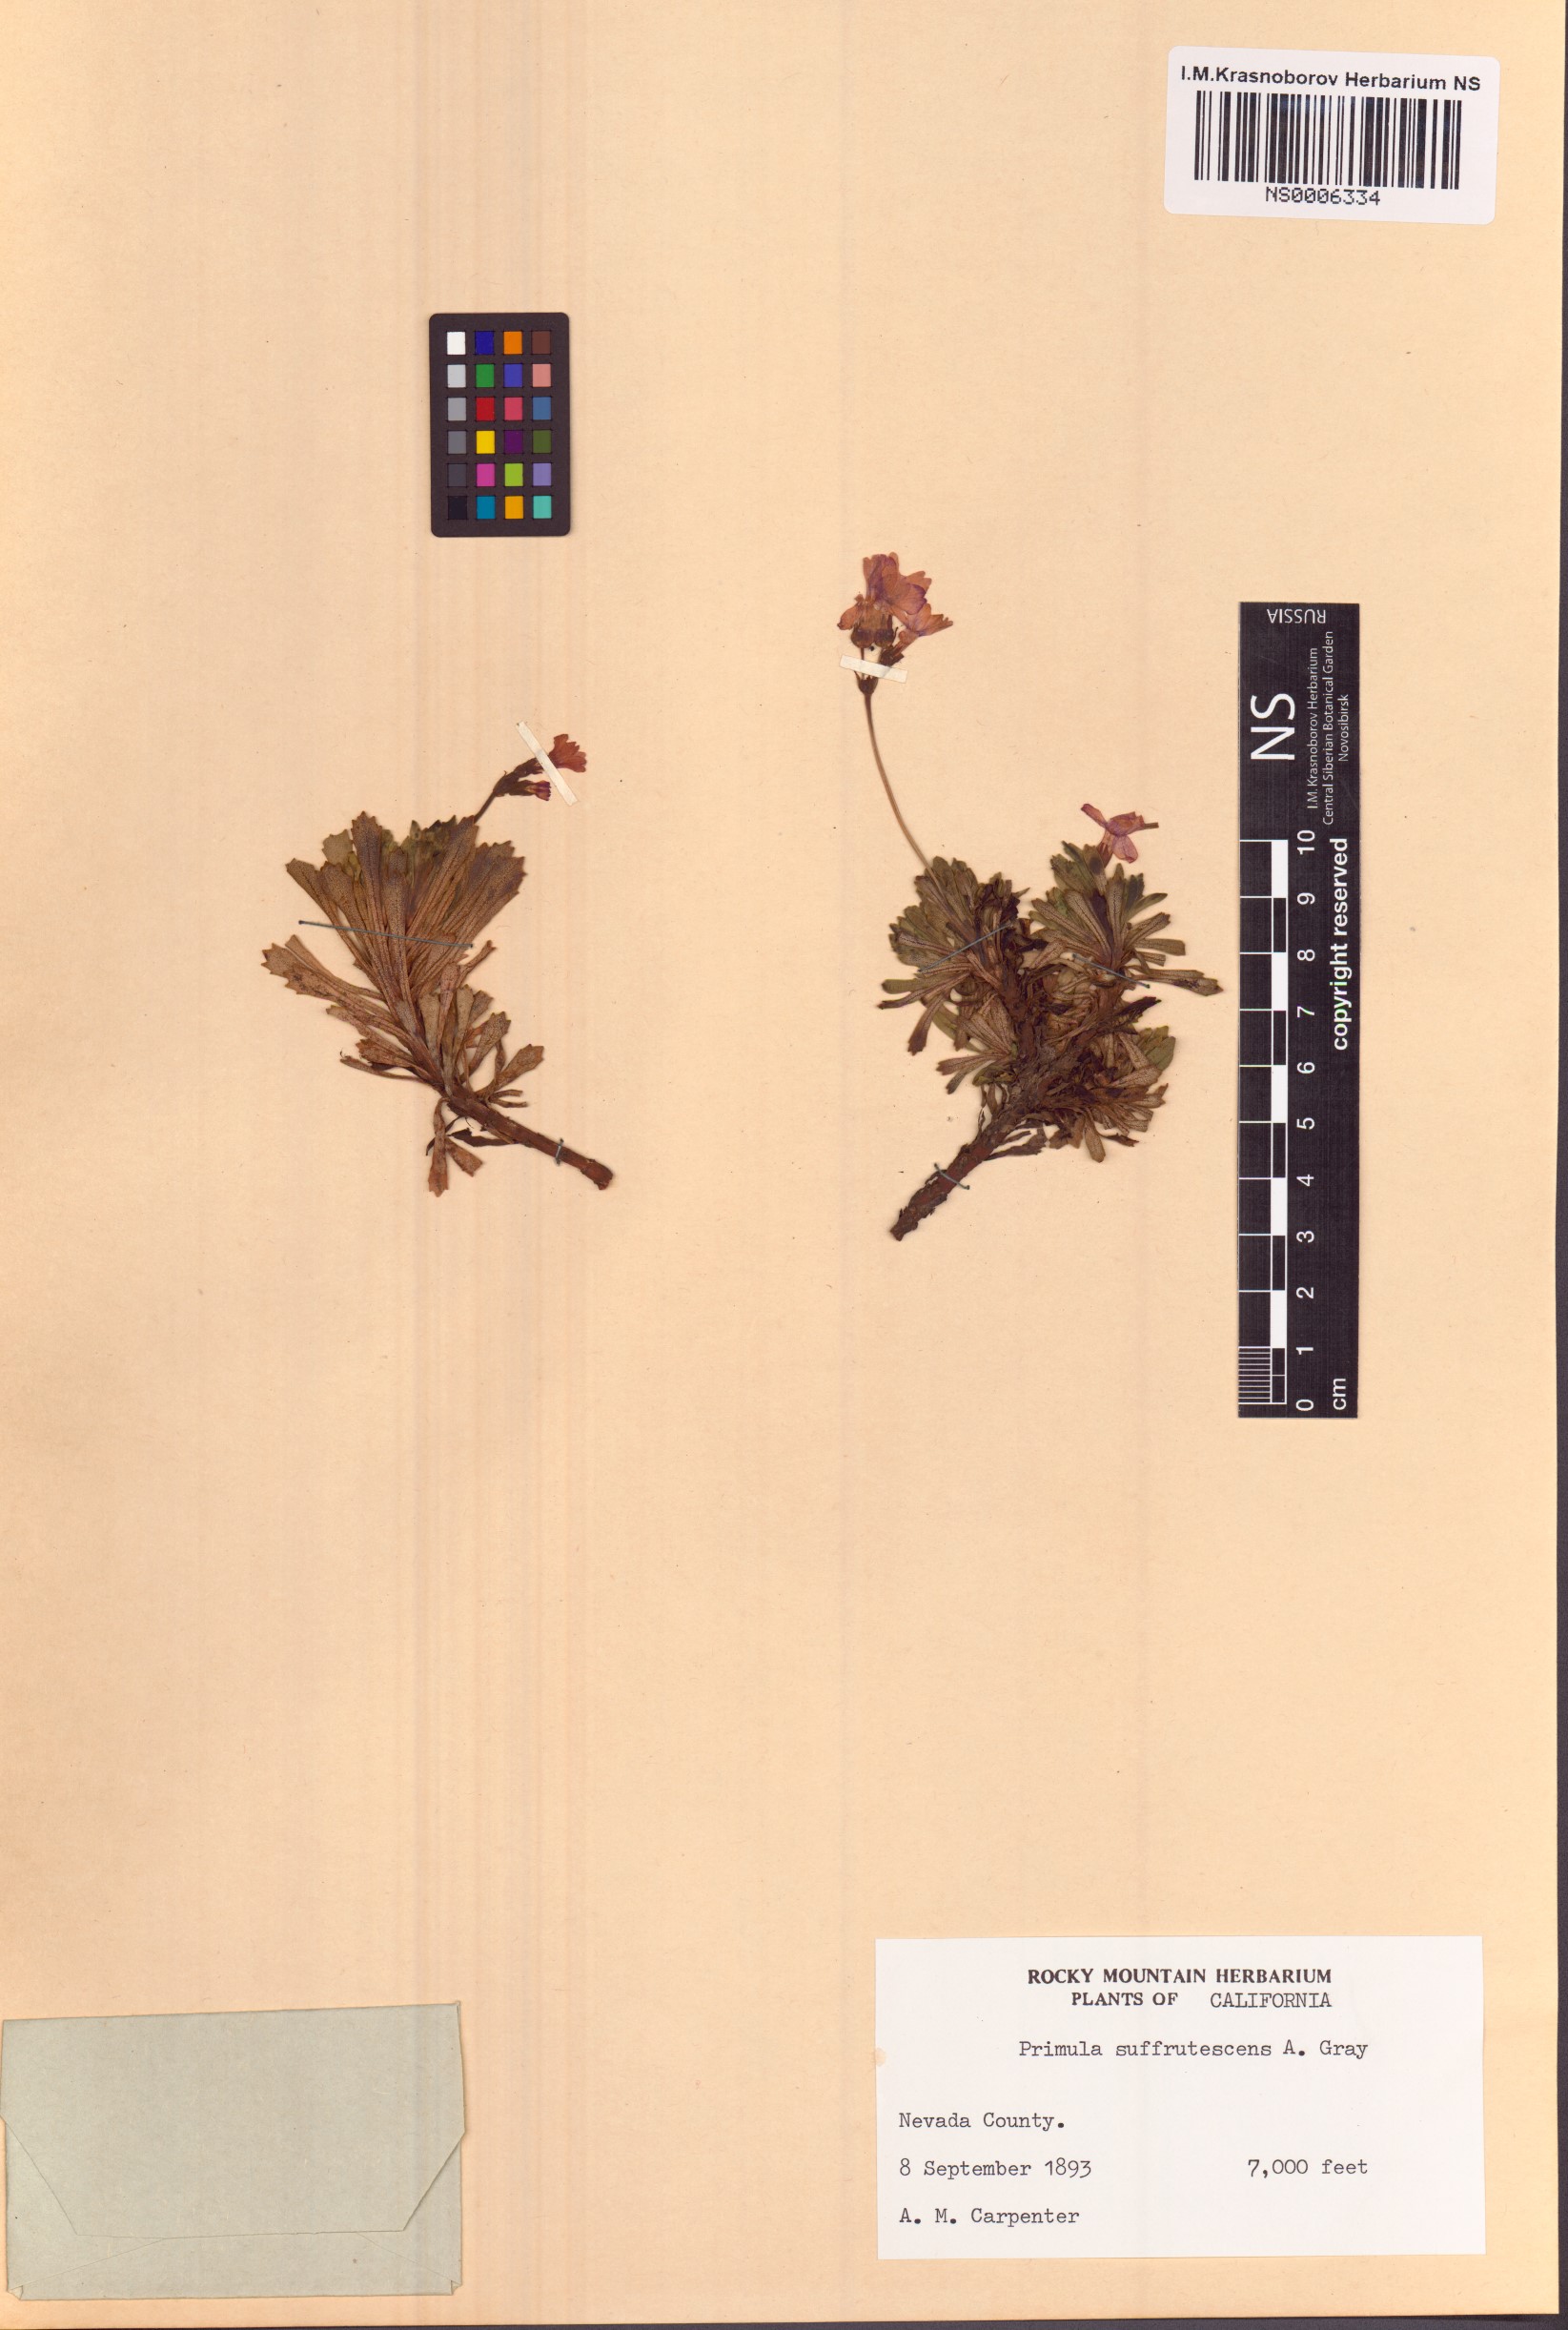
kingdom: Plantae
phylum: Tracheophyta
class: Magnoliopsida
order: Ericales
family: Primulaceae
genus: Primula
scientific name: Primula suffrutescens
